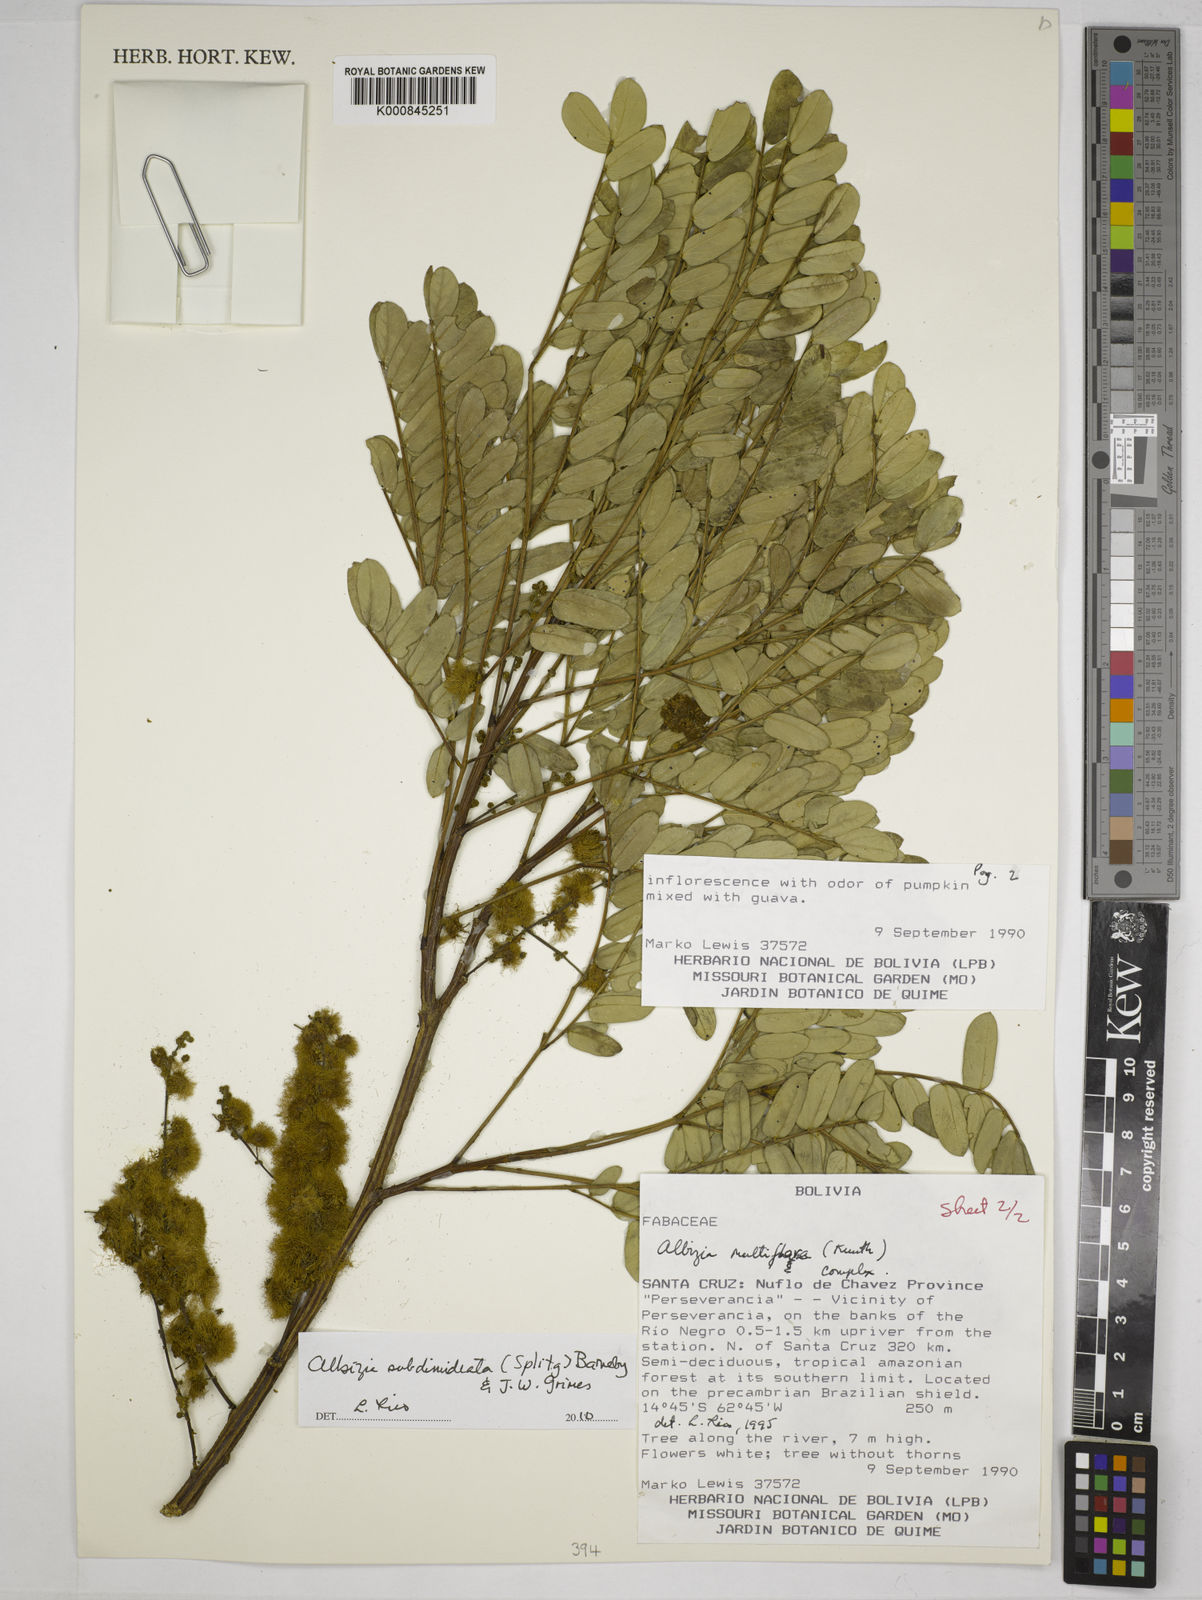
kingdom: Plantae
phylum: Tracheophyta
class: Magnoliopsida
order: Fabales
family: Fabaceae
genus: Albizia
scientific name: Albizia subdimidiata
